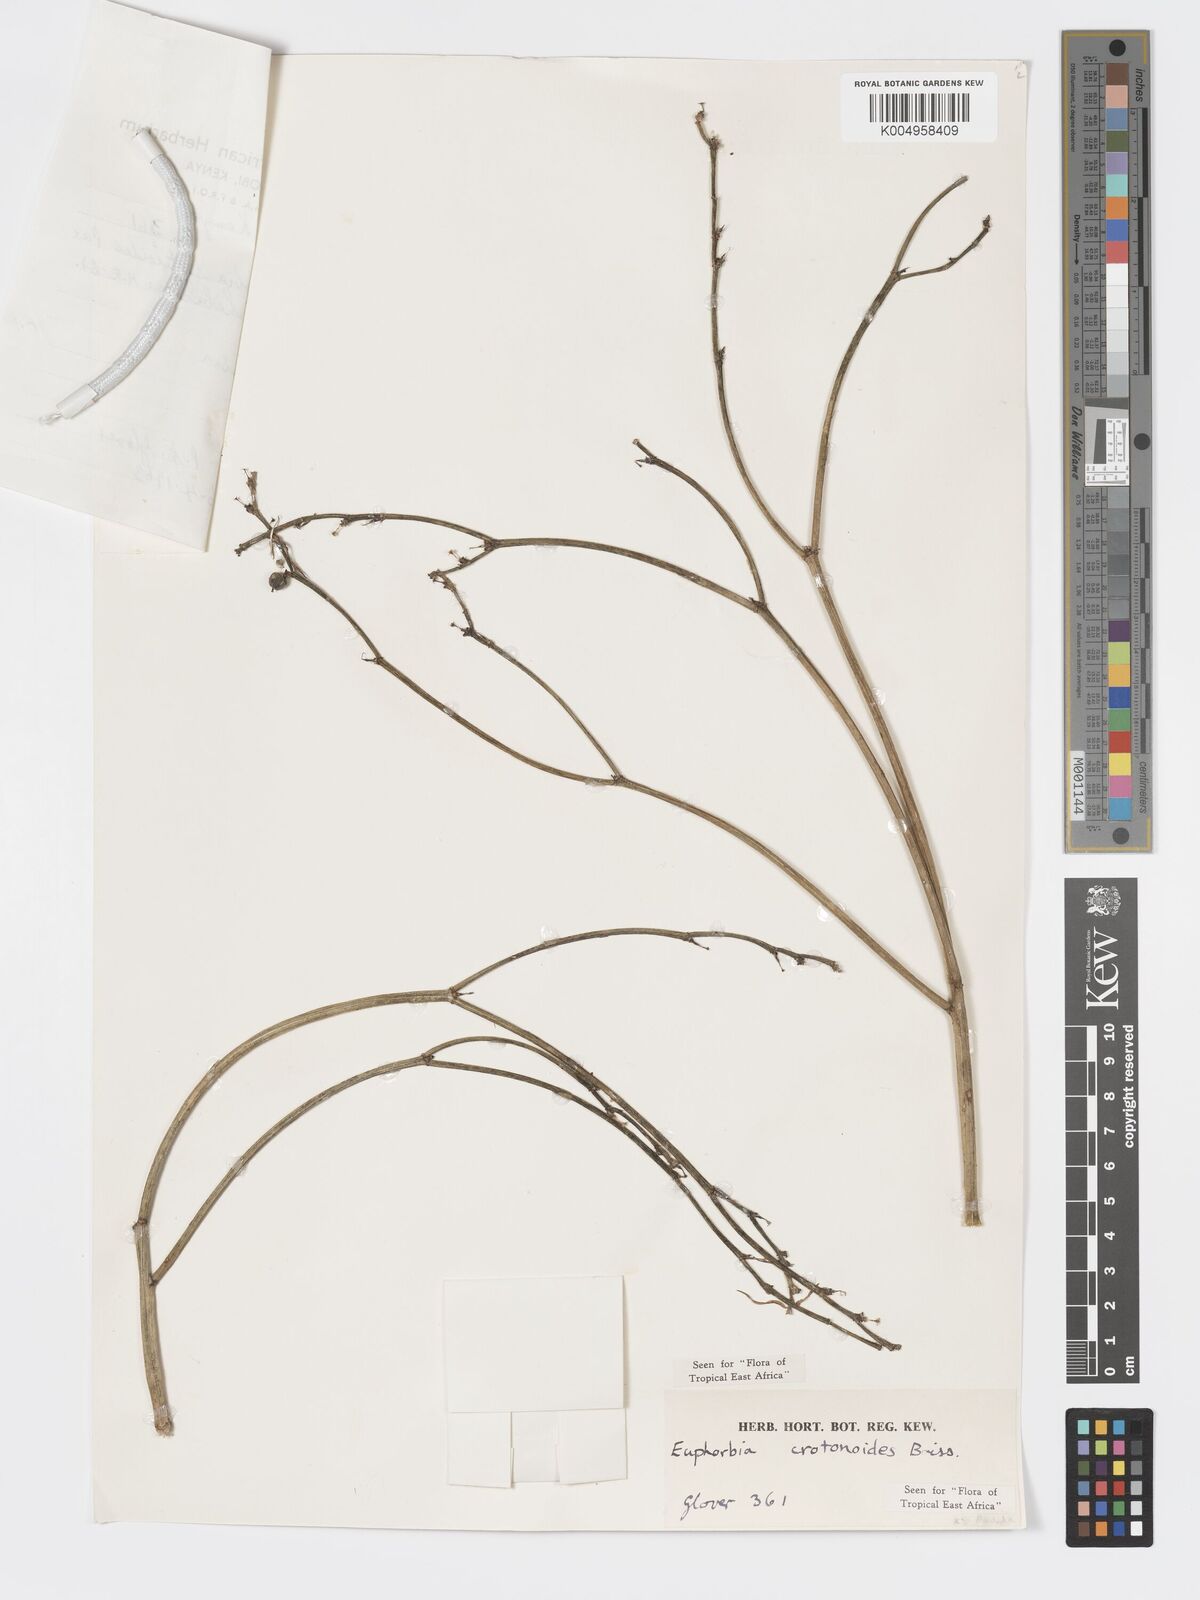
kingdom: Plantae
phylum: Tracheophyta
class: Magnoliopsida
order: Malpighiales
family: Euphorbiaceae
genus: Euphorbia
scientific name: Euphorbia crotonoides
